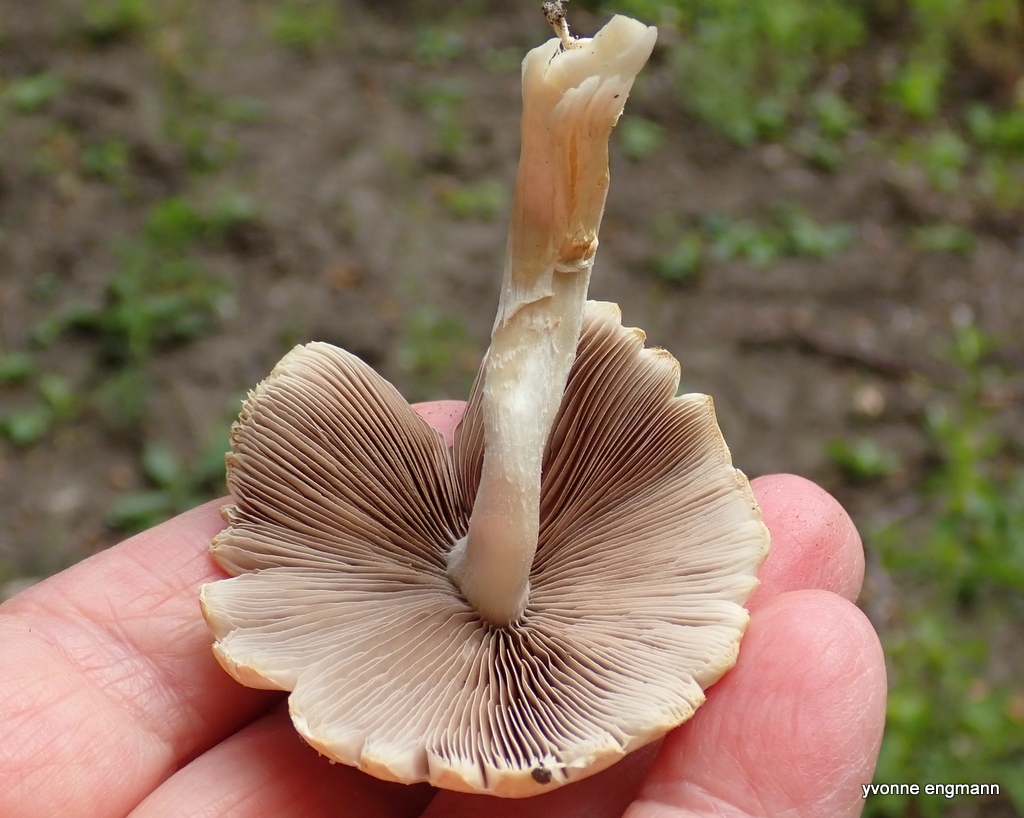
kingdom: Fungi
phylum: Basidiomycota
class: Agaricomycetes
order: Agaricales
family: Psathyrellaceae
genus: Candolleomyces
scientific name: Candolleomyces candolleanus
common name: Candolles mørkhat
